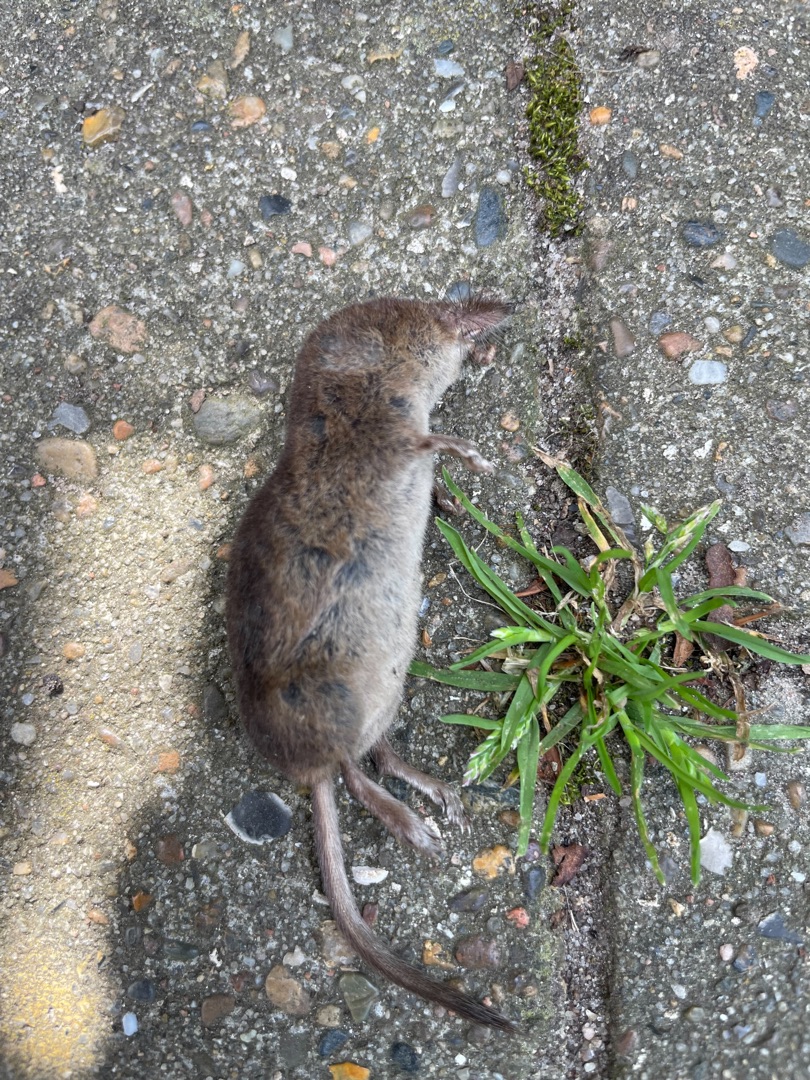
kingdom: Animalia
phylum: Chordata
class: Mammalia
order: Soricomorpha
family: Soricidae
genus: Sorex
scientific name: Sorex araneus
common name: Almindelig spidsmus
